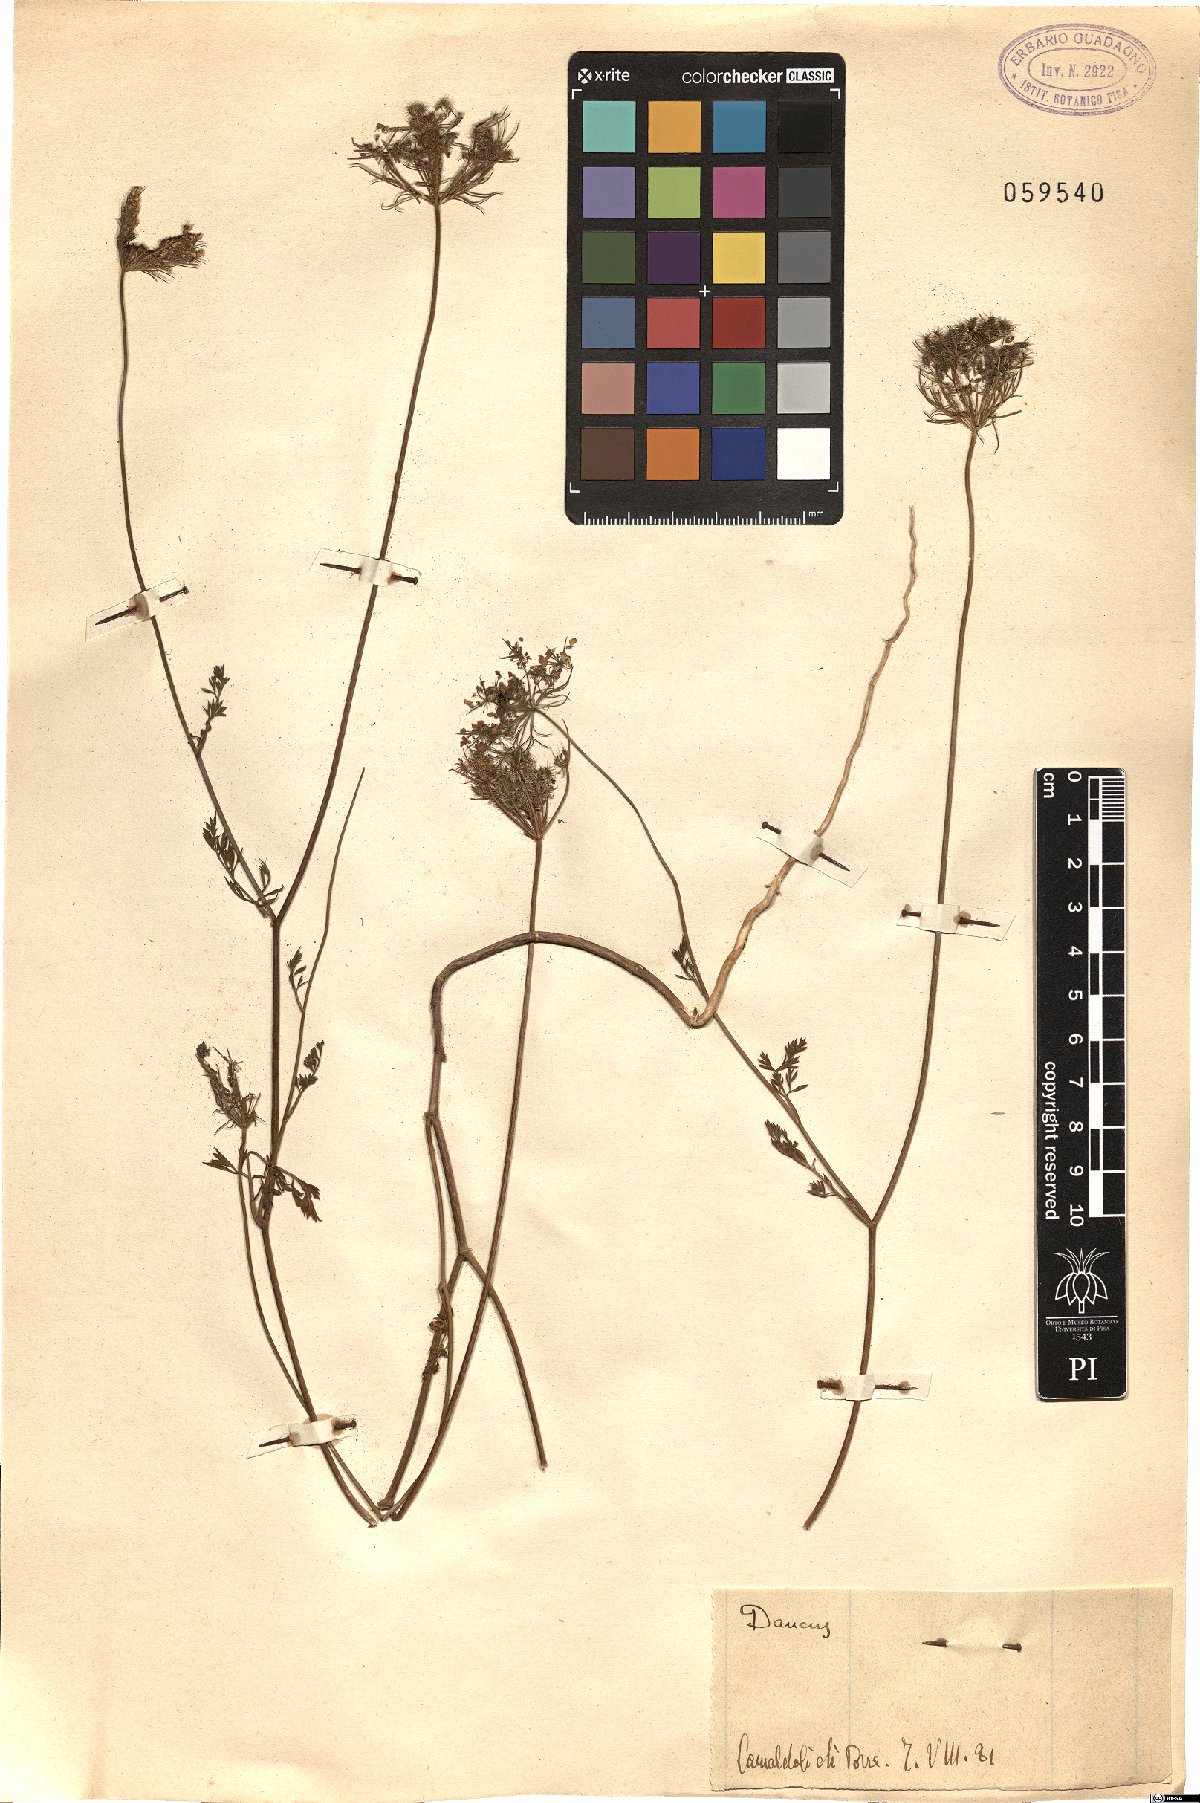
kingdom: Plantae
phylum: Tracheophyta
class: Magnoliopsida
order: Apiales
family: Apiaceae
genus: Daucus
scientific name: Daucus
